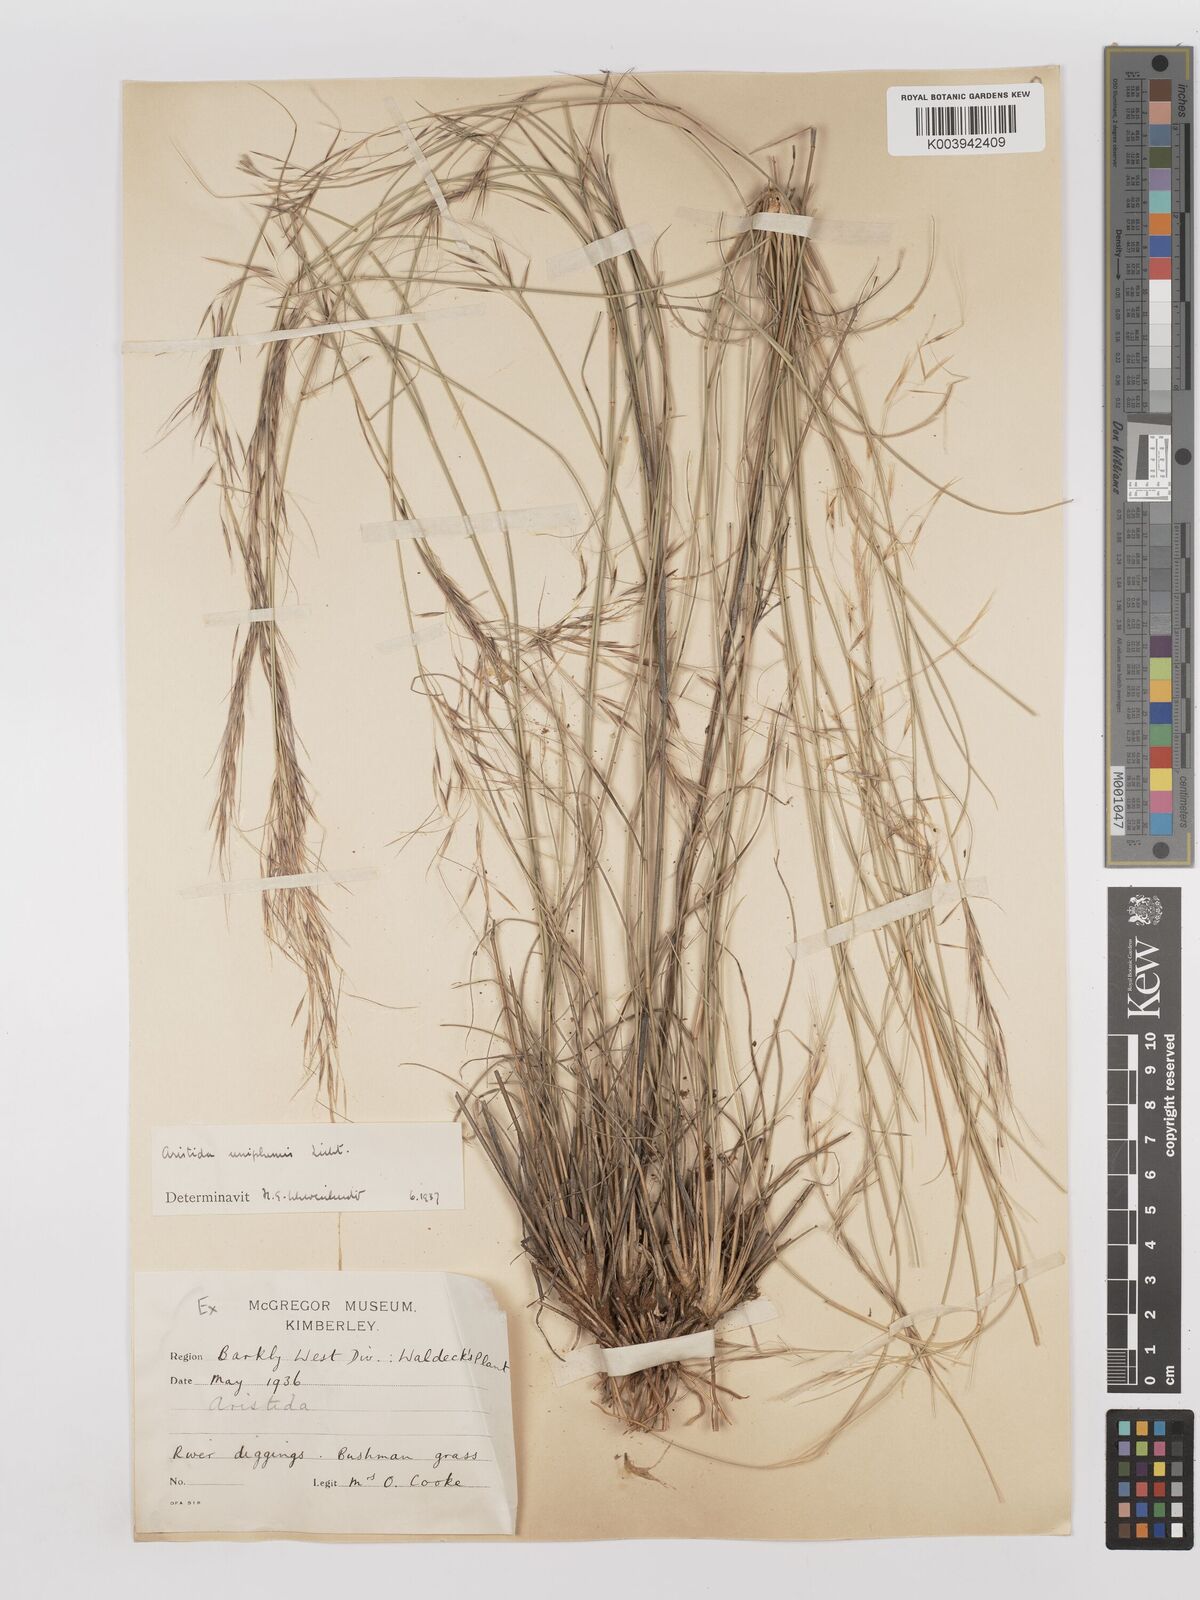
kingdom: Plantae
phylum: Tracheophyta
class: Liliopsida
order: Poales
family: Poaceae
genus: Stipagrostis
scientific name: Stipagrostis uniplumis
